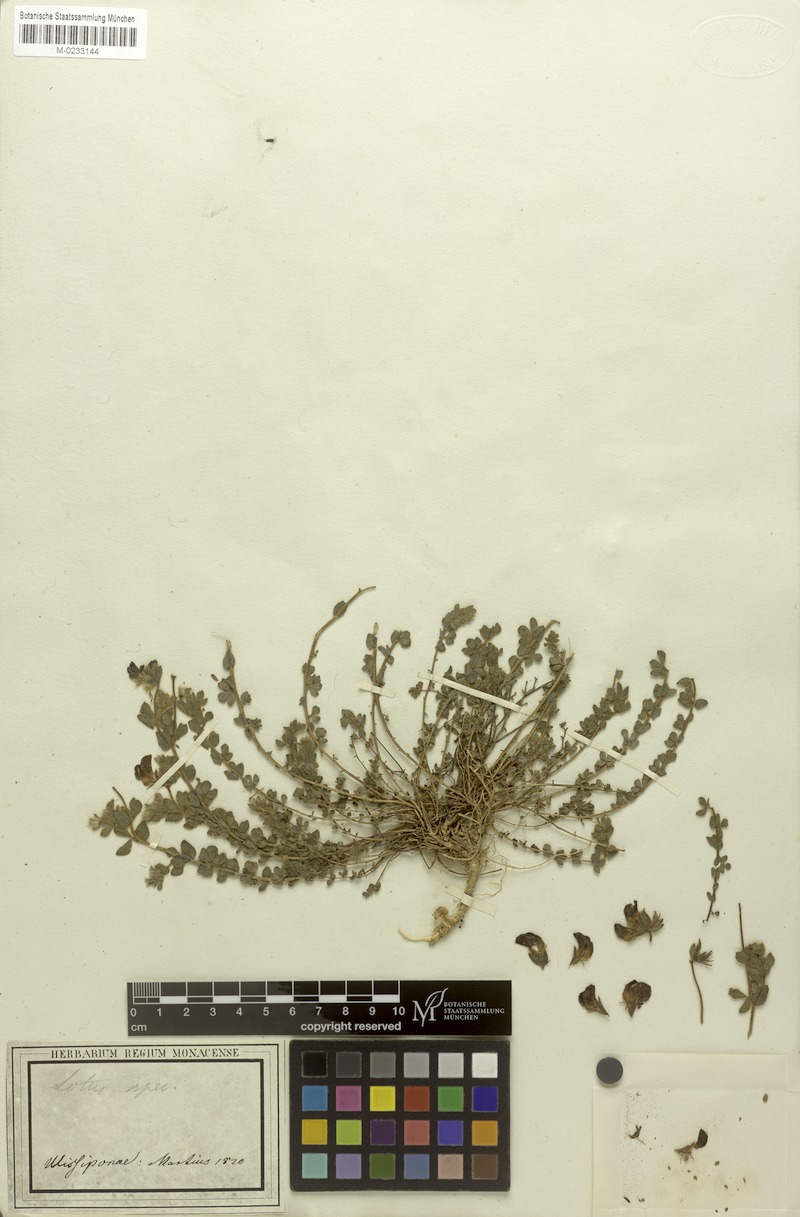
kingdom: Plantae
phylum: Tracheophyta
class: Magnoliopsida
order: Fabales
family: Fabaceae
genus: Lotus
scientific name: Lotus
